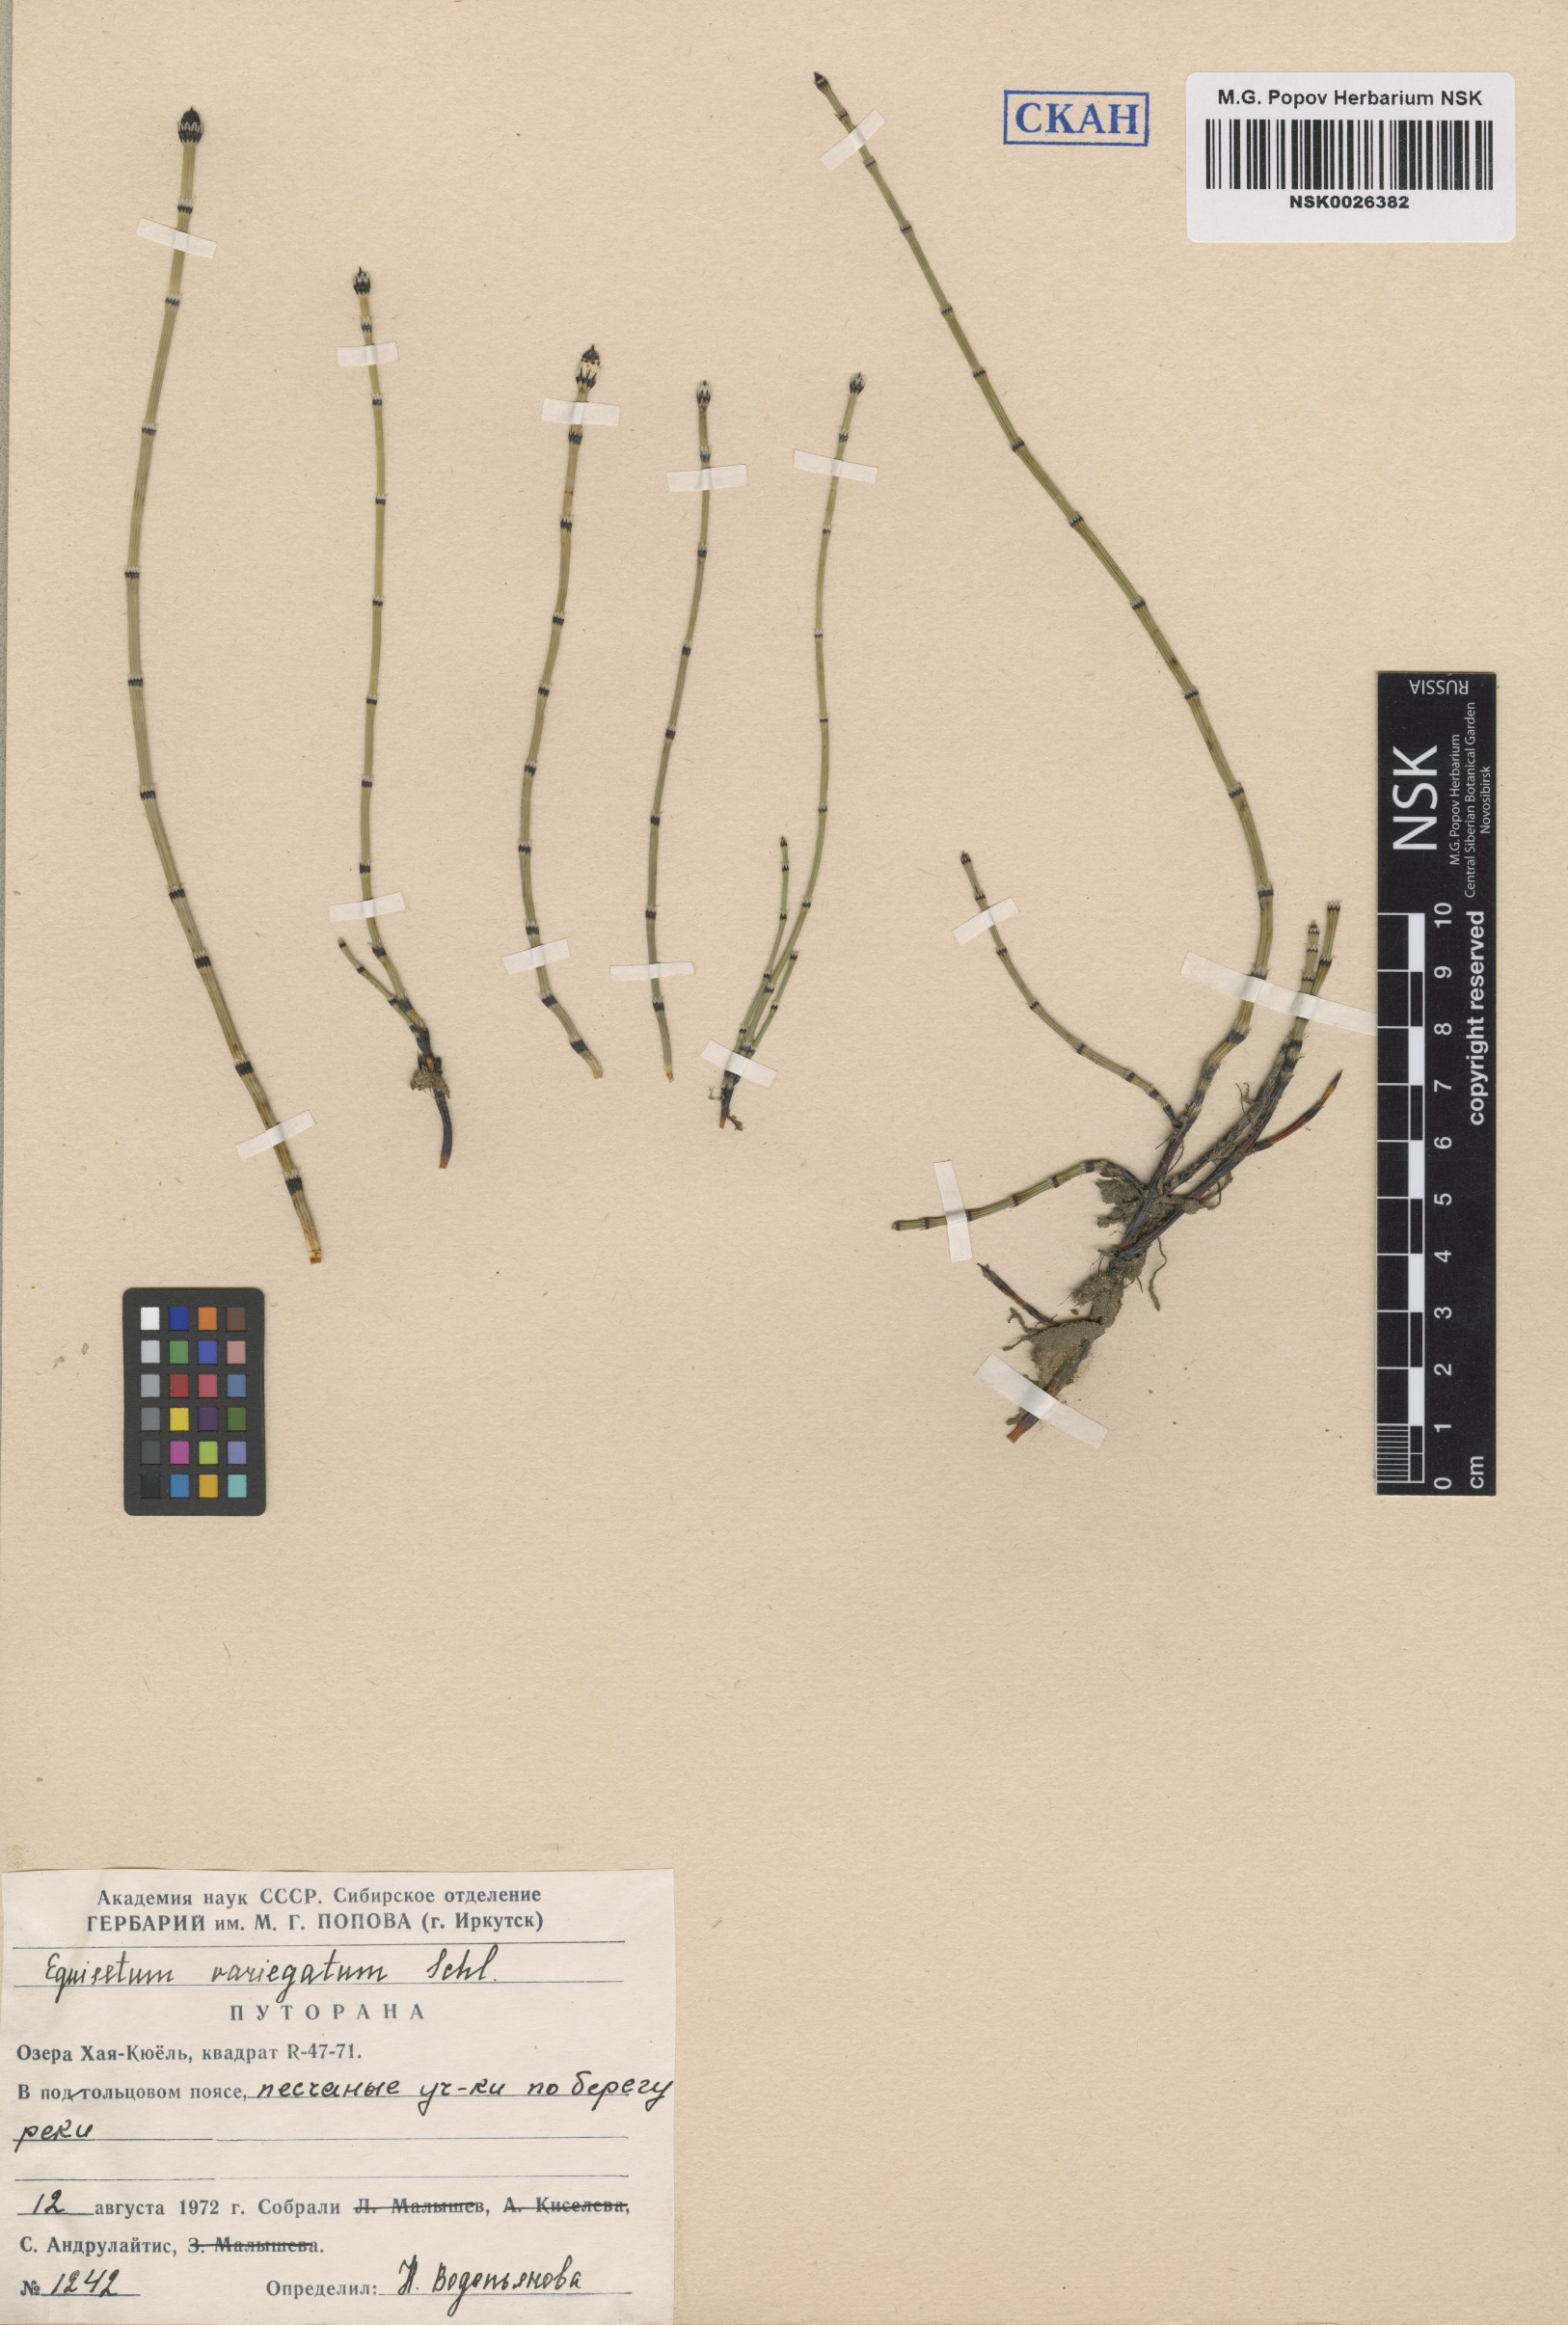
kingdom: Plantae
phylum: Tracheophyta
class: Polypodiopsida
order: Equisetales
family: Equisetaceae
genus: Equisetum
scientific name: Equisetum variegatum
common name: Variegated horsetail
